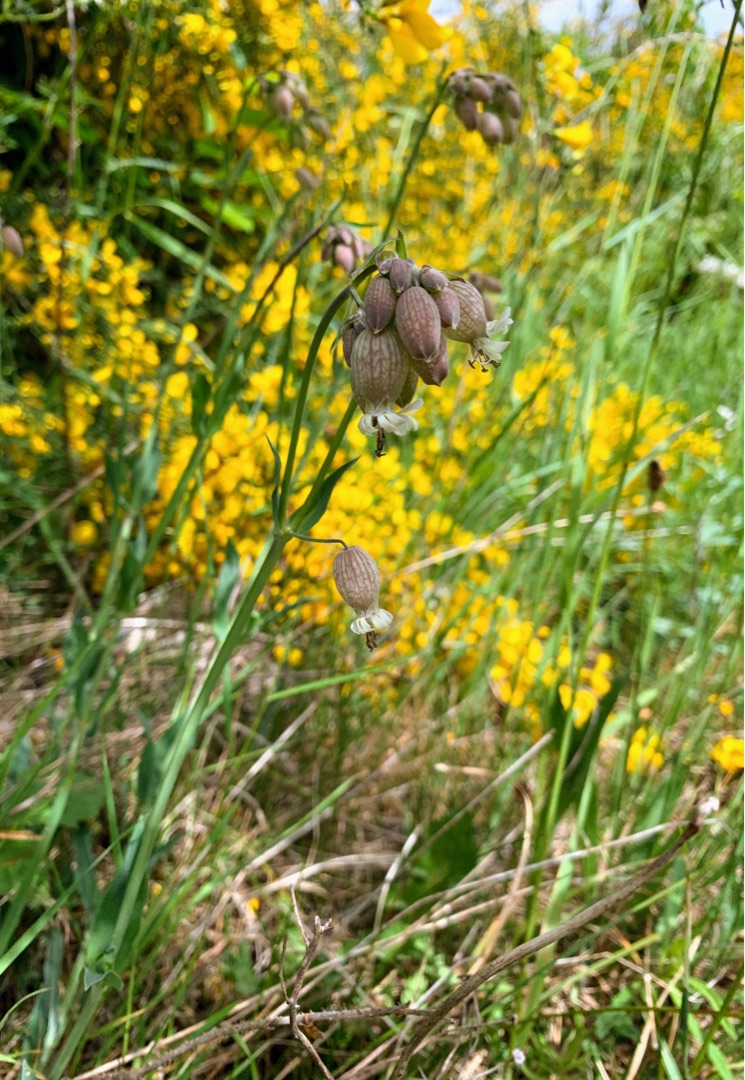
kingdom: Plantae
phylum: Tracheophyta
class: Magnoliopsida
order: Caryophyllales
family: Caryophyllaceae
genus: Silene
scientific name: Silene vulgaris
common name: Blæresmælde
